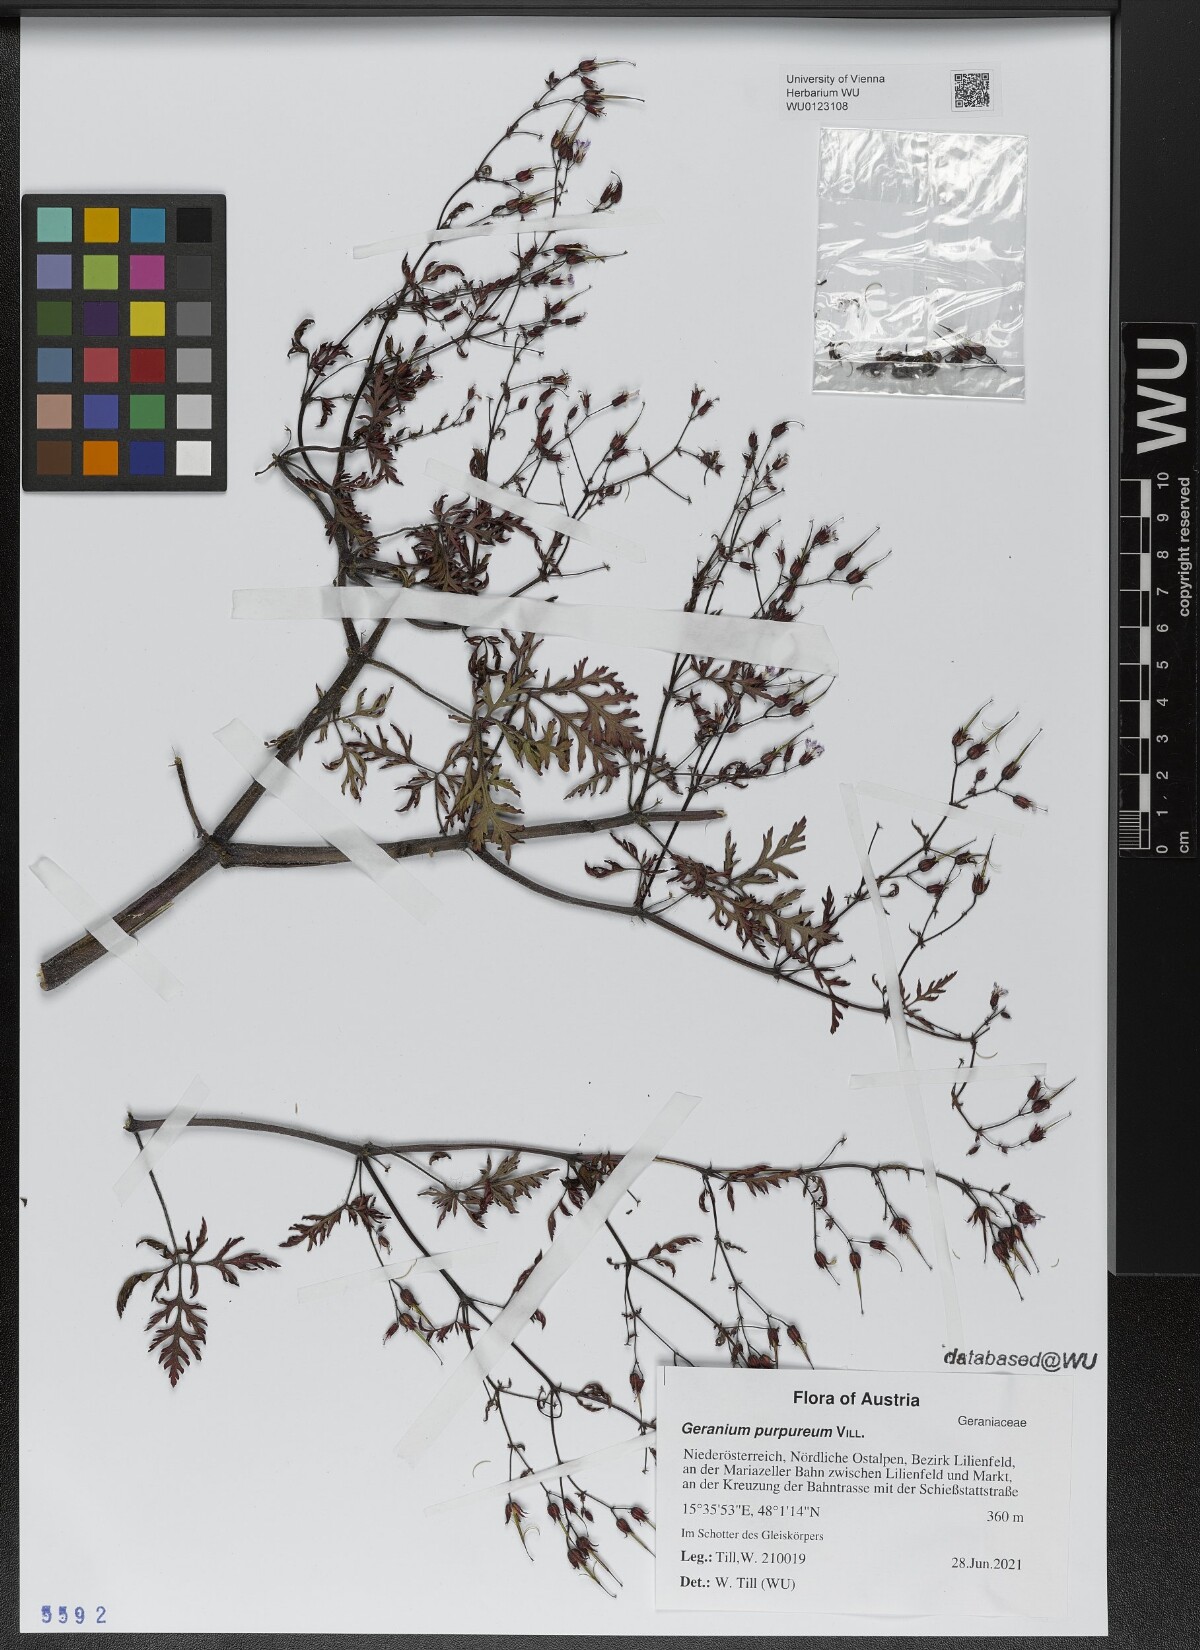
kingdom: Plantae
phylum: Tracheophyta
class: Magnoliopsida
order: Geraniales
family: Geraniaceae
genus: Geranium
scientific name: Geranium purpureum
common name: Little-robin
